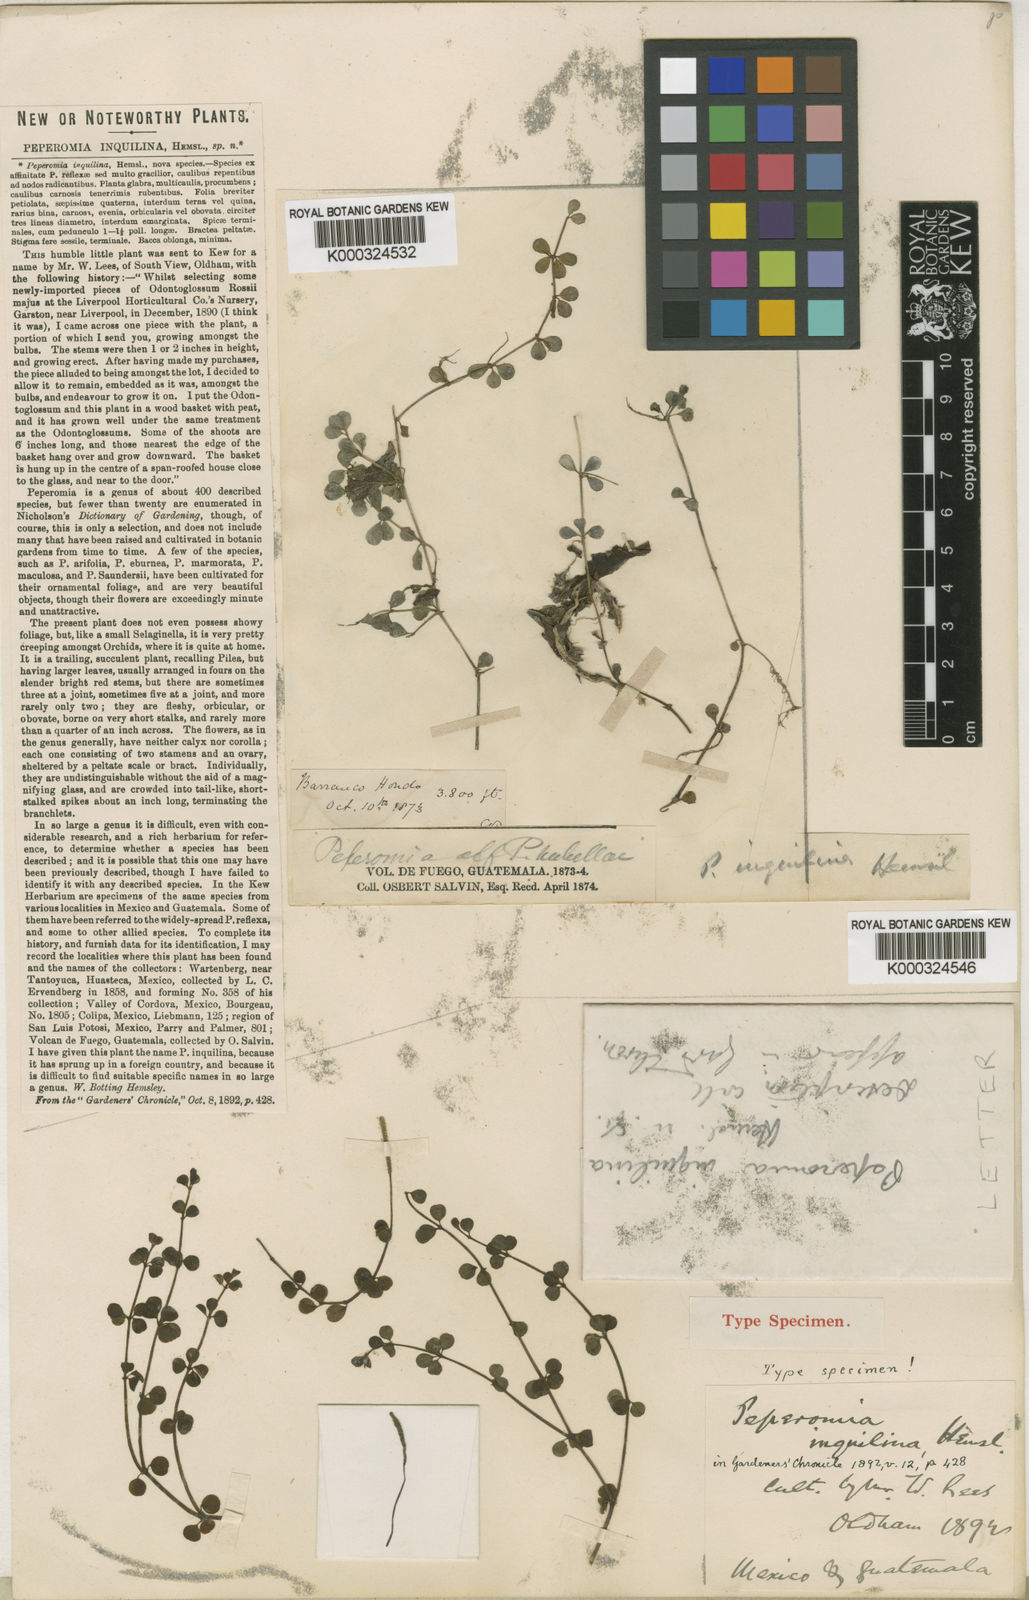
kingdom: Plantae
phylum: Tracheophyta
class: Magnoliopsida
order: Piperales
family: Piperaceae
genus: Peperomia
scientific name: Peperomia inquilina
